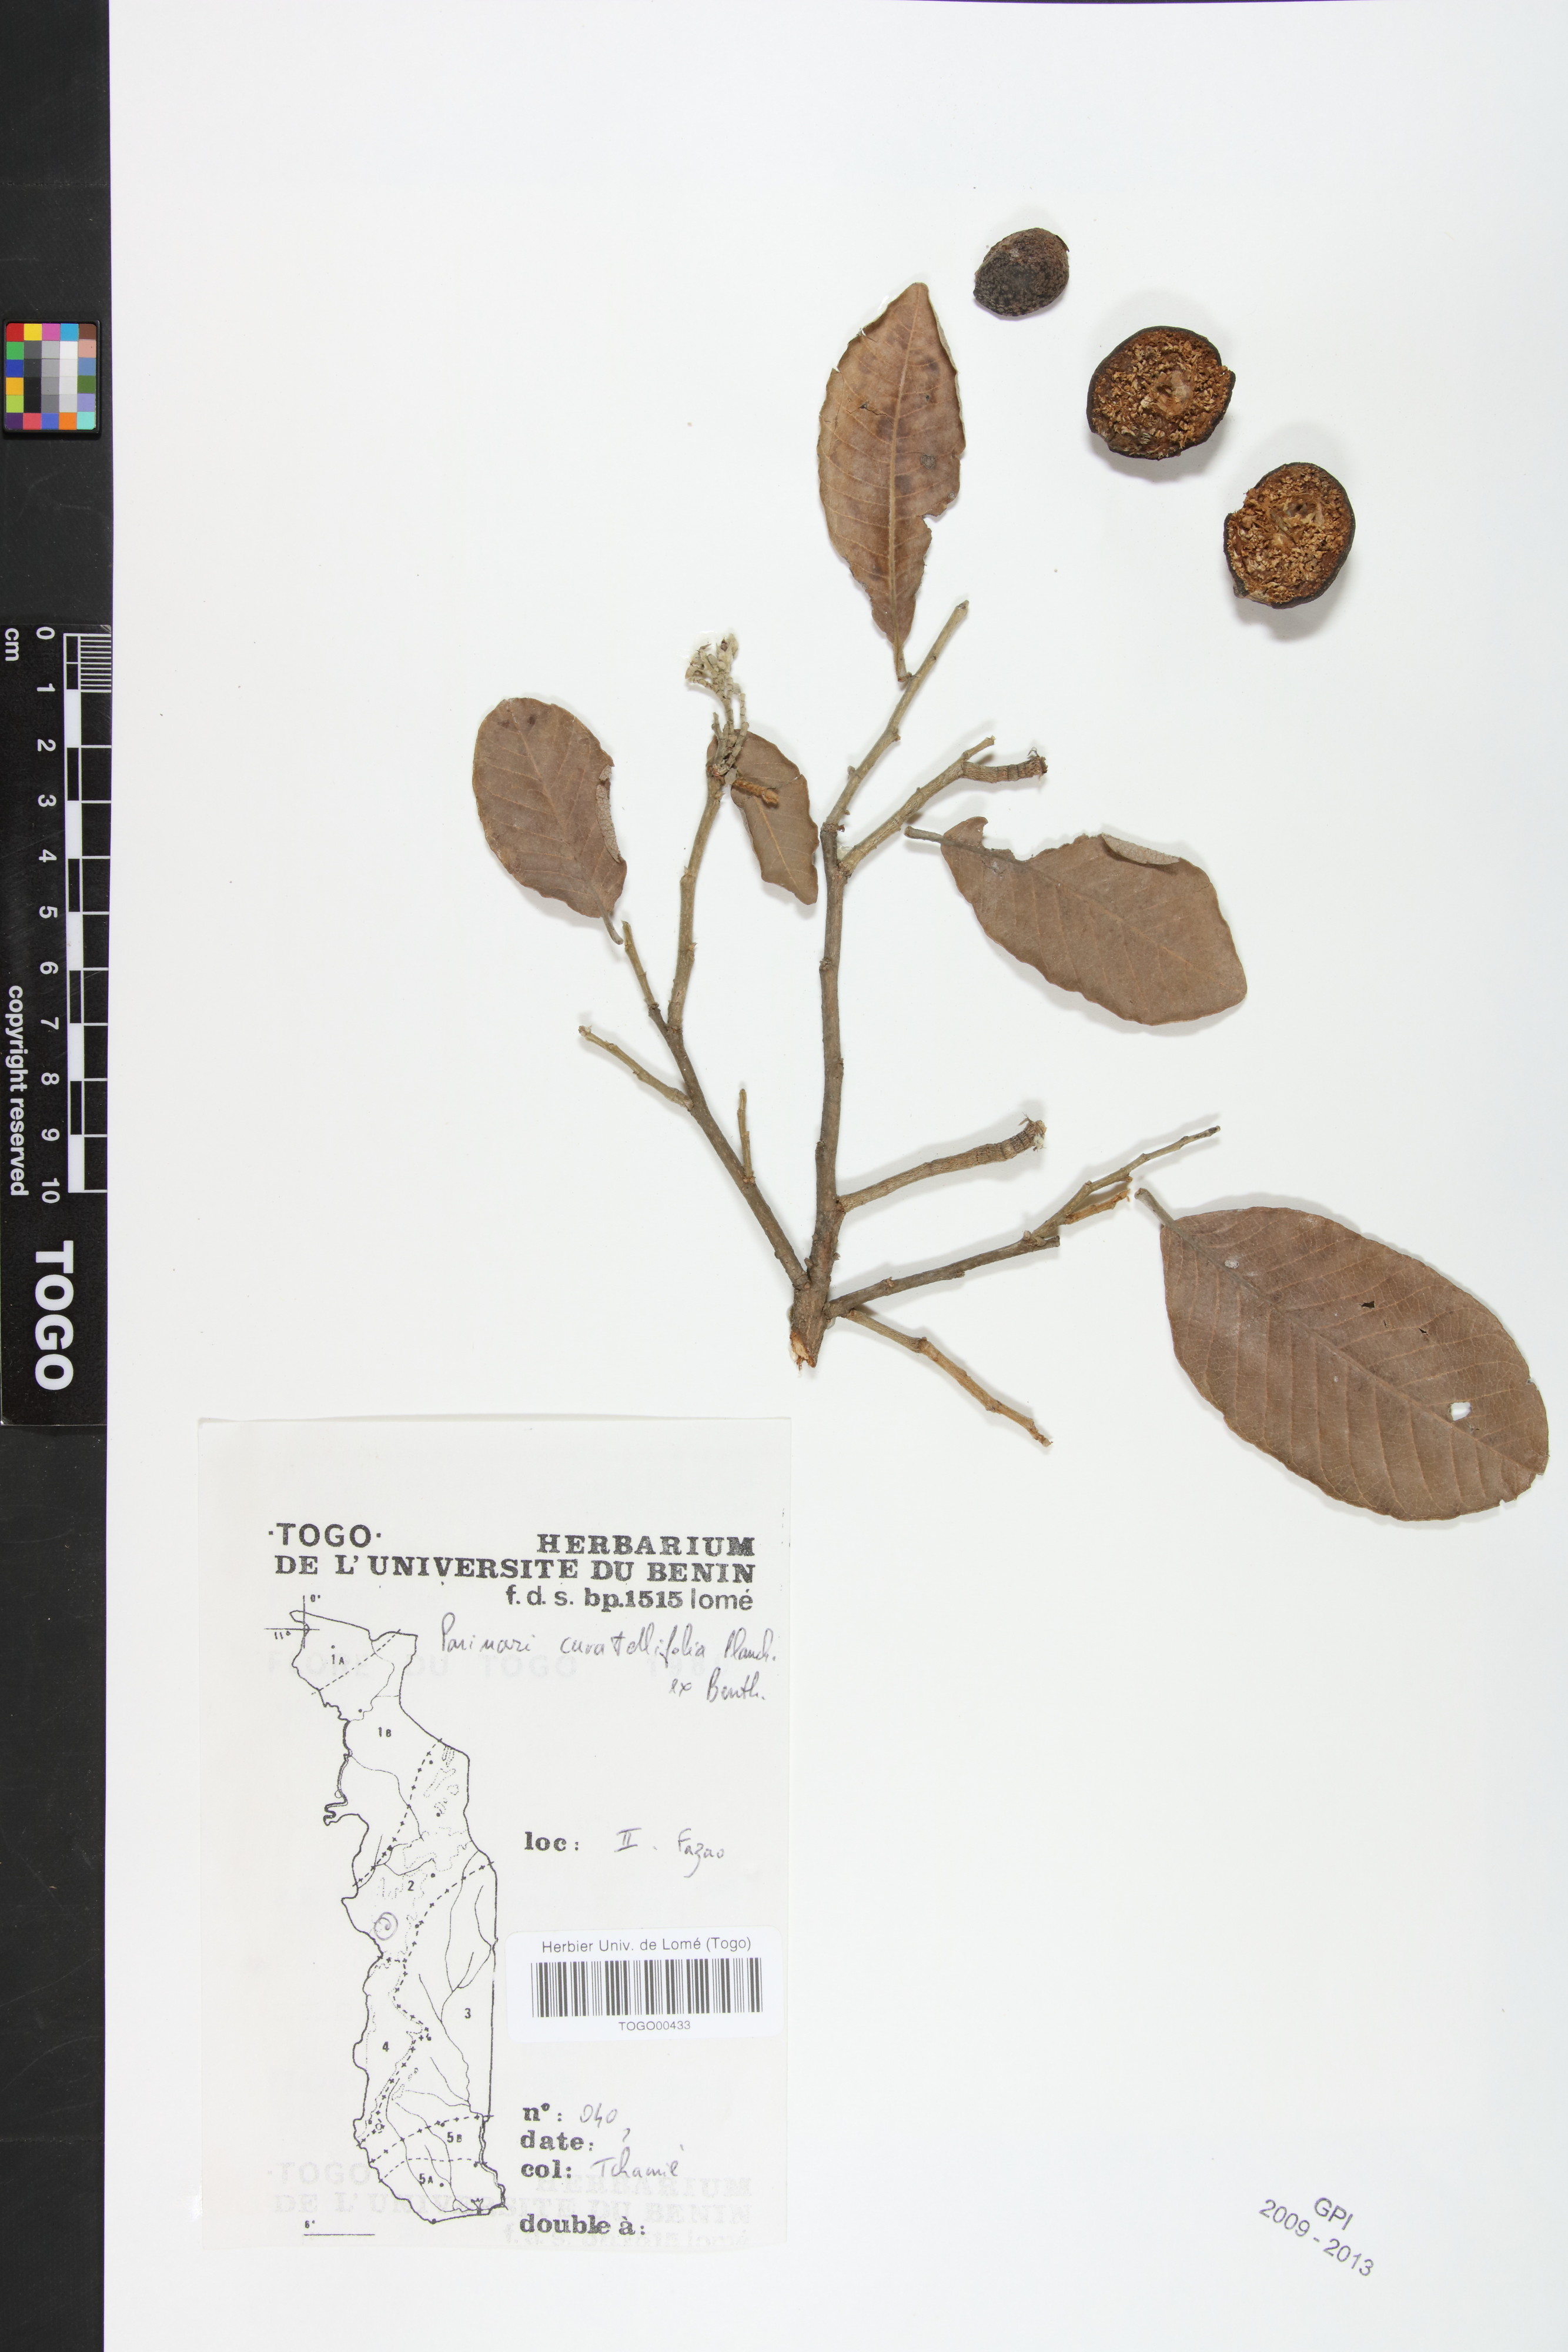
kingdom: Plantae
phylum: Tracheophyta
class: Magnoliopsida
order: Malpighiales
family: Chrysobalanaceae
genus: Parinari
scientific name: Parinari curatellifolia
